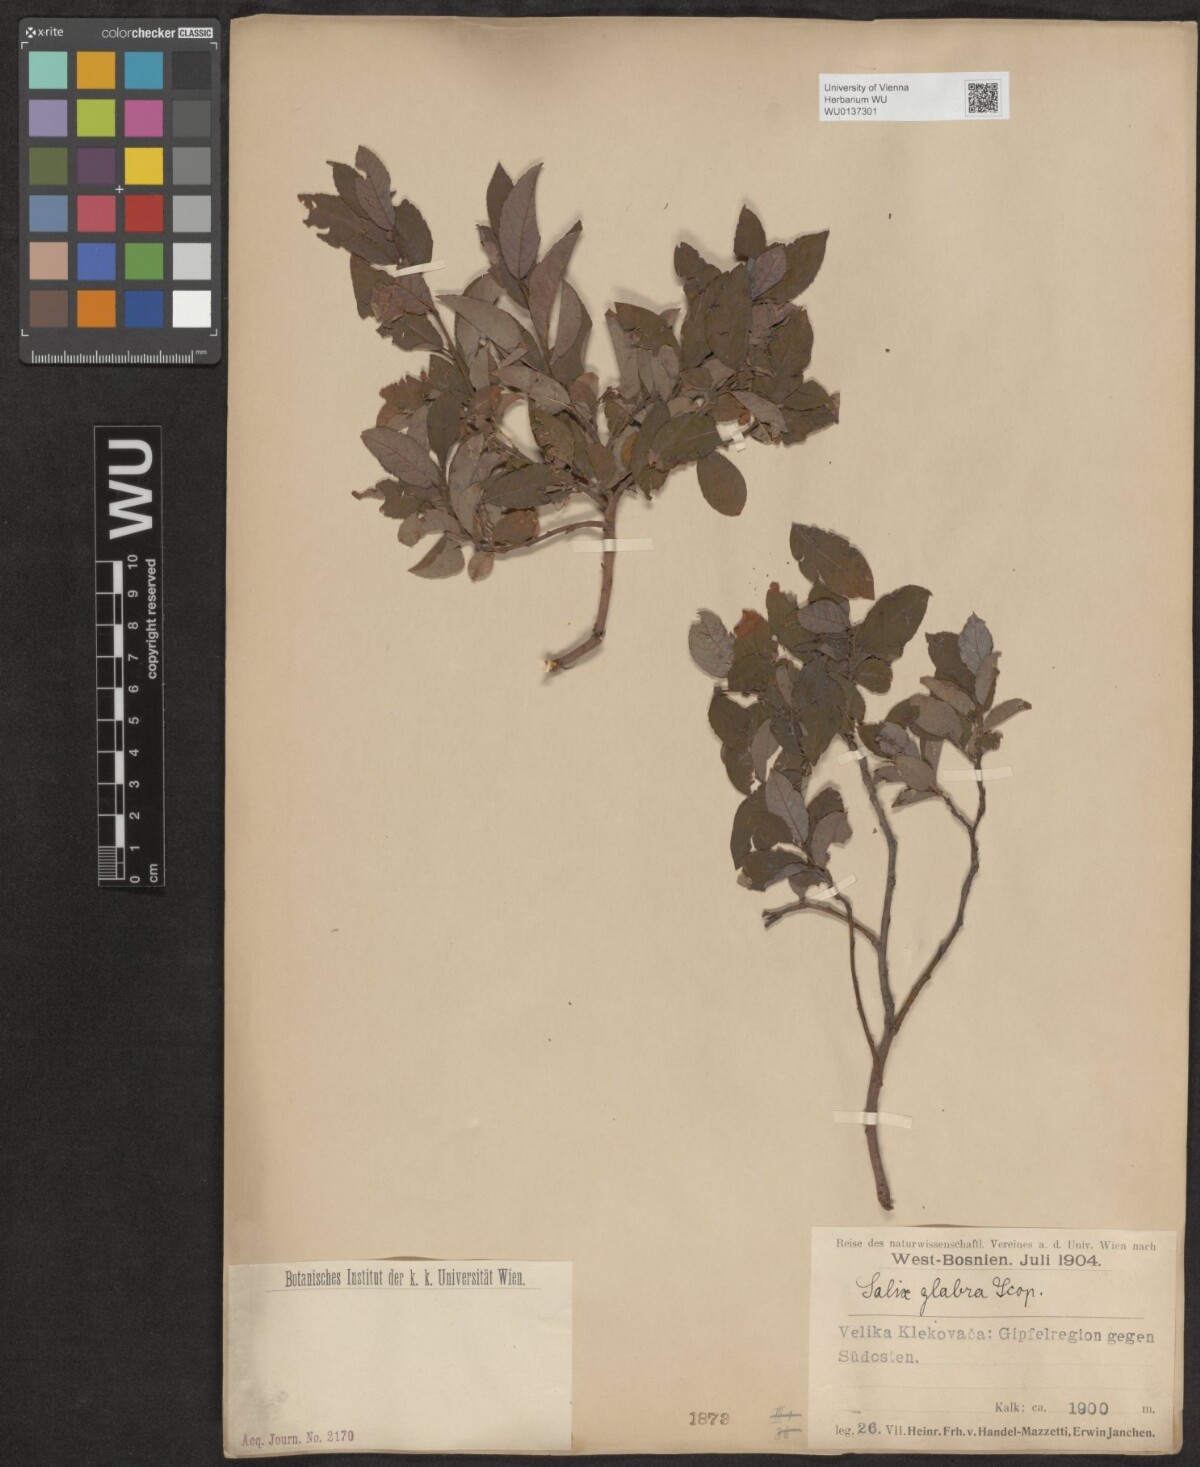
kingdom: Plantae
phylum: Tracheophyta
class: Magnoliopsida
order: Malpighiales
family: Salicaceae
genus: Salix
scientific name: Salix glabra
